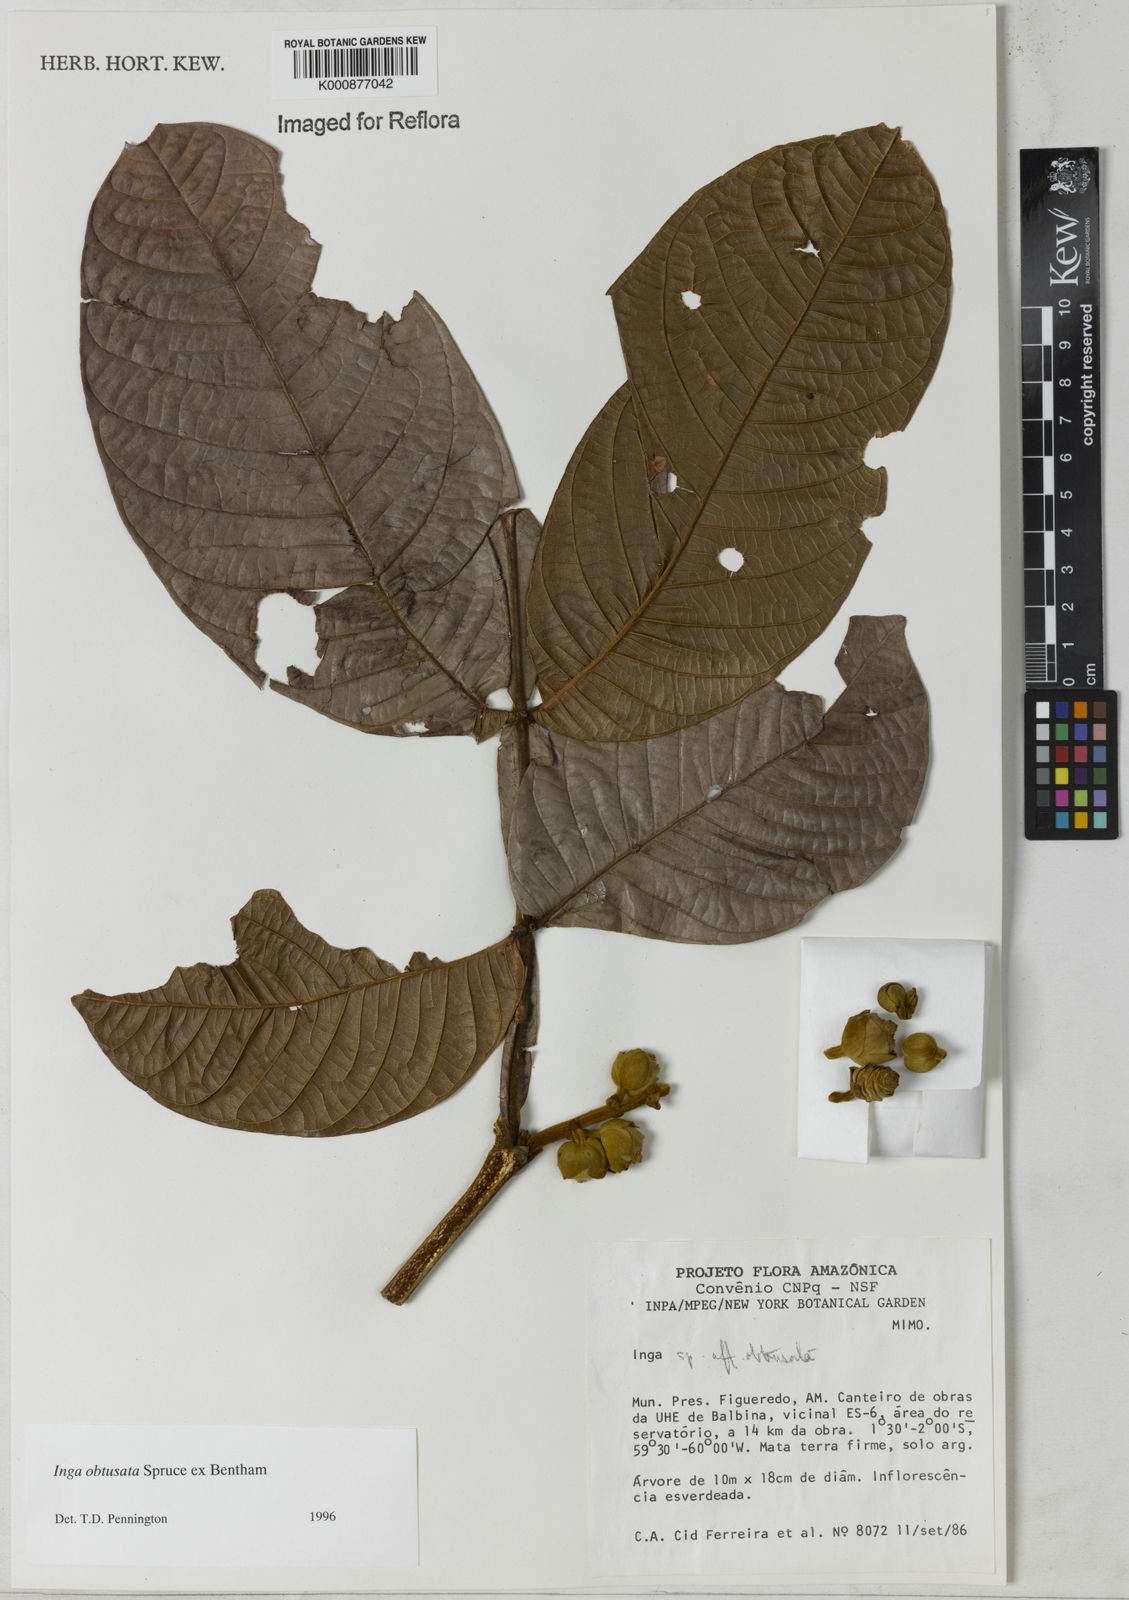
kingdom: Plantae
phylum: Tracheophyta
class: Magnoliopsida
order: Fabales
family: Fabaceae
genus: Inga
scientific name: Inga obtusata
